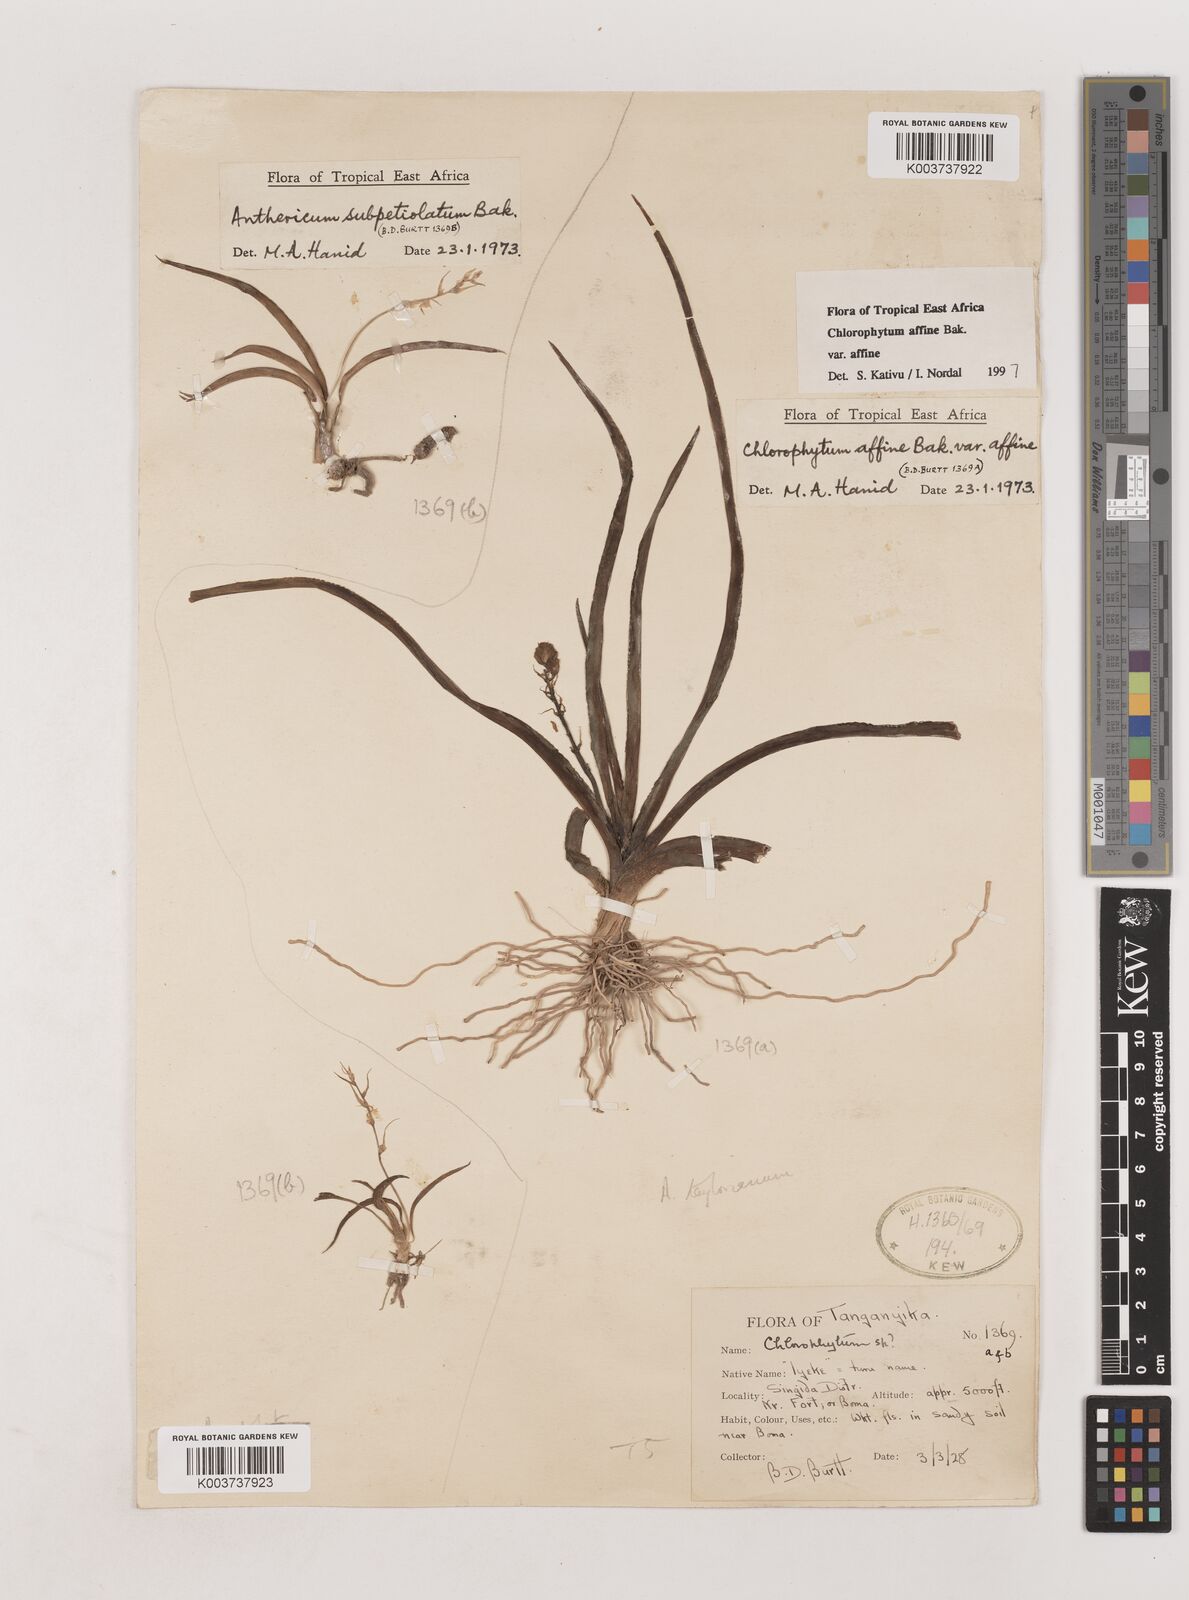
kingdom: Plantae
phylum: Tracheophyta
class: Liliopsida
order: Asparagales
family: Asparagaceae
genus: Chlorophytum
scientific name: Chlorophytum affine
